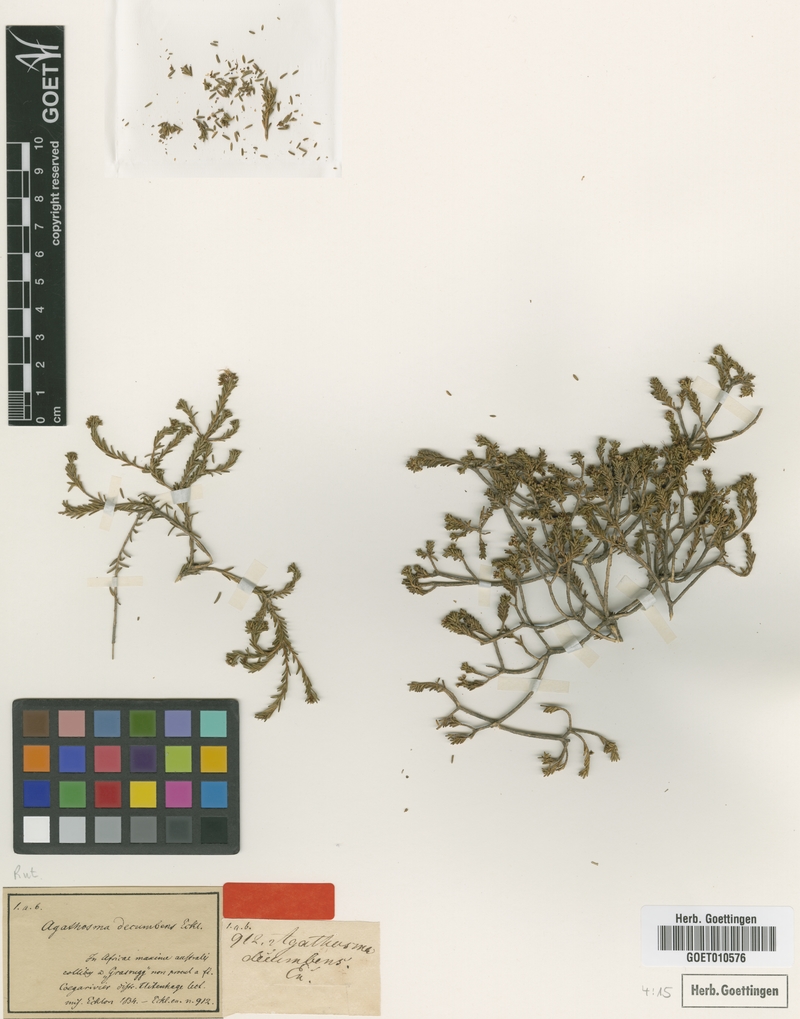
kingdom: Plantae
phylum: Tracheophyta
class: Magnoliopsida
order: Sapindales
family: Rutaceae
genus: Agathosma
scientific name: Agathosma capensis
